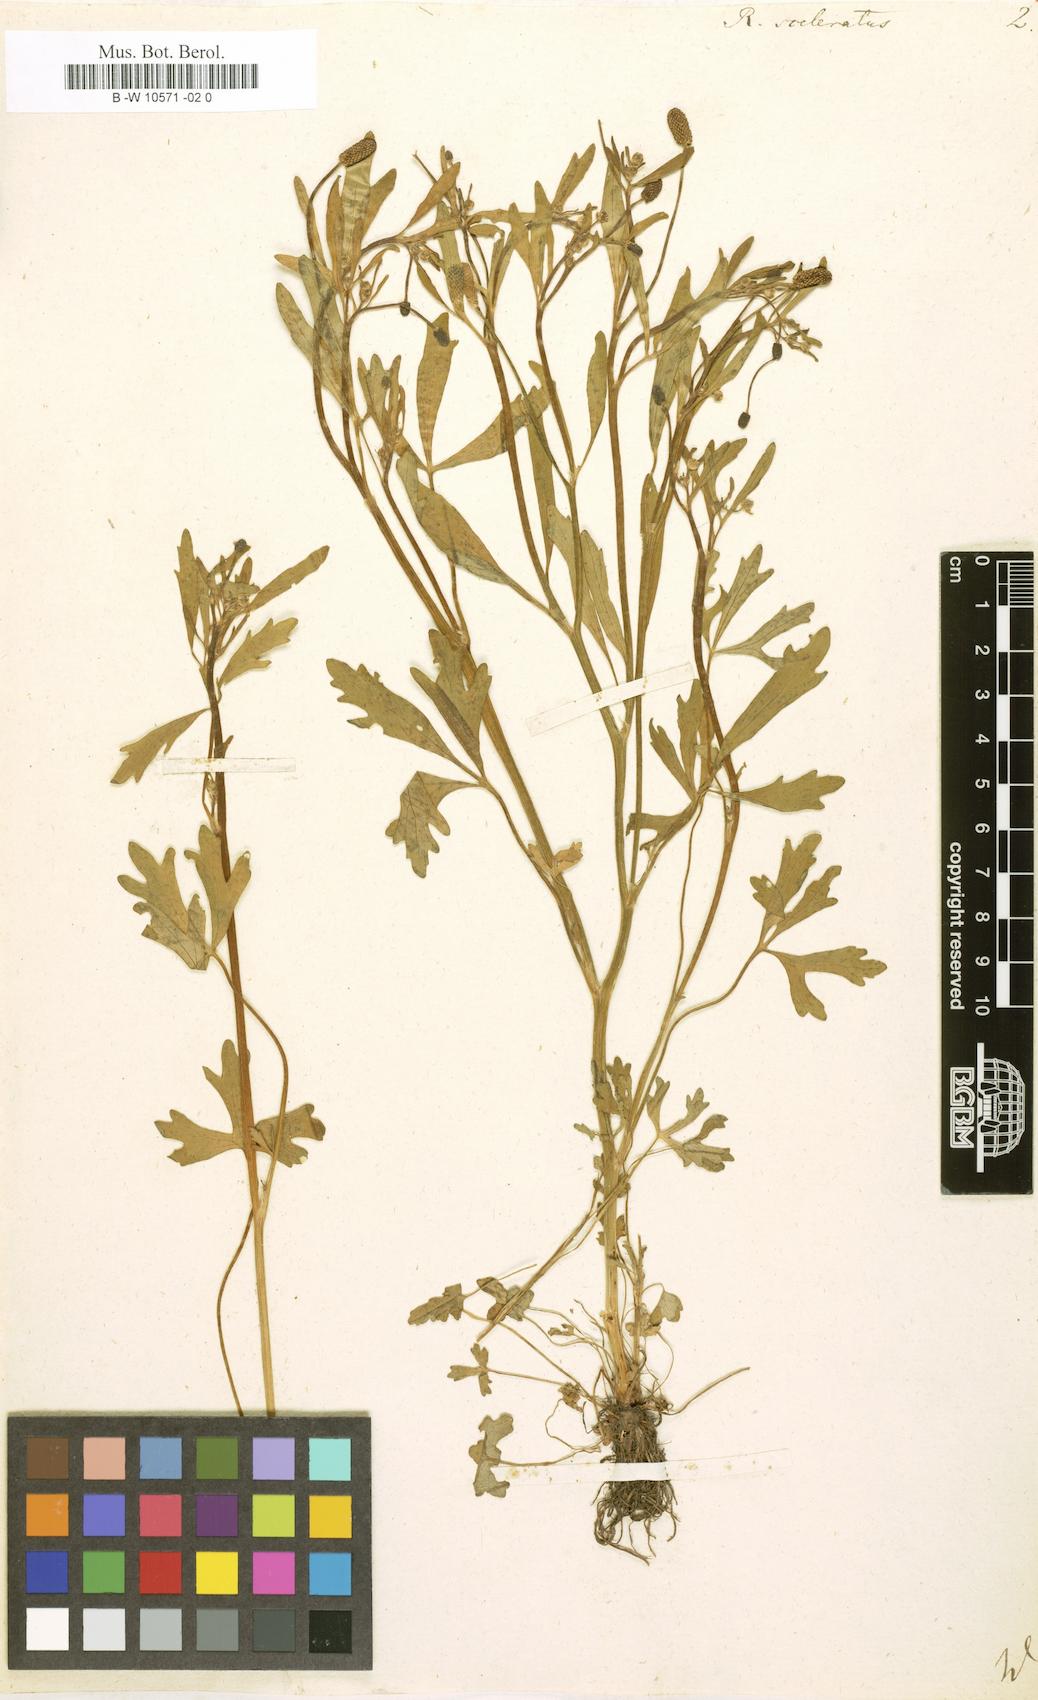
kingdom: Plantae
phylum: Tracheophyta
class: Magnoliopsida
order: Ranunculales
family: Ranunculaceae
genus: Ranunculus
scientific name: Ranunculus sceleratus
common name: Celery-leaved buttercup
